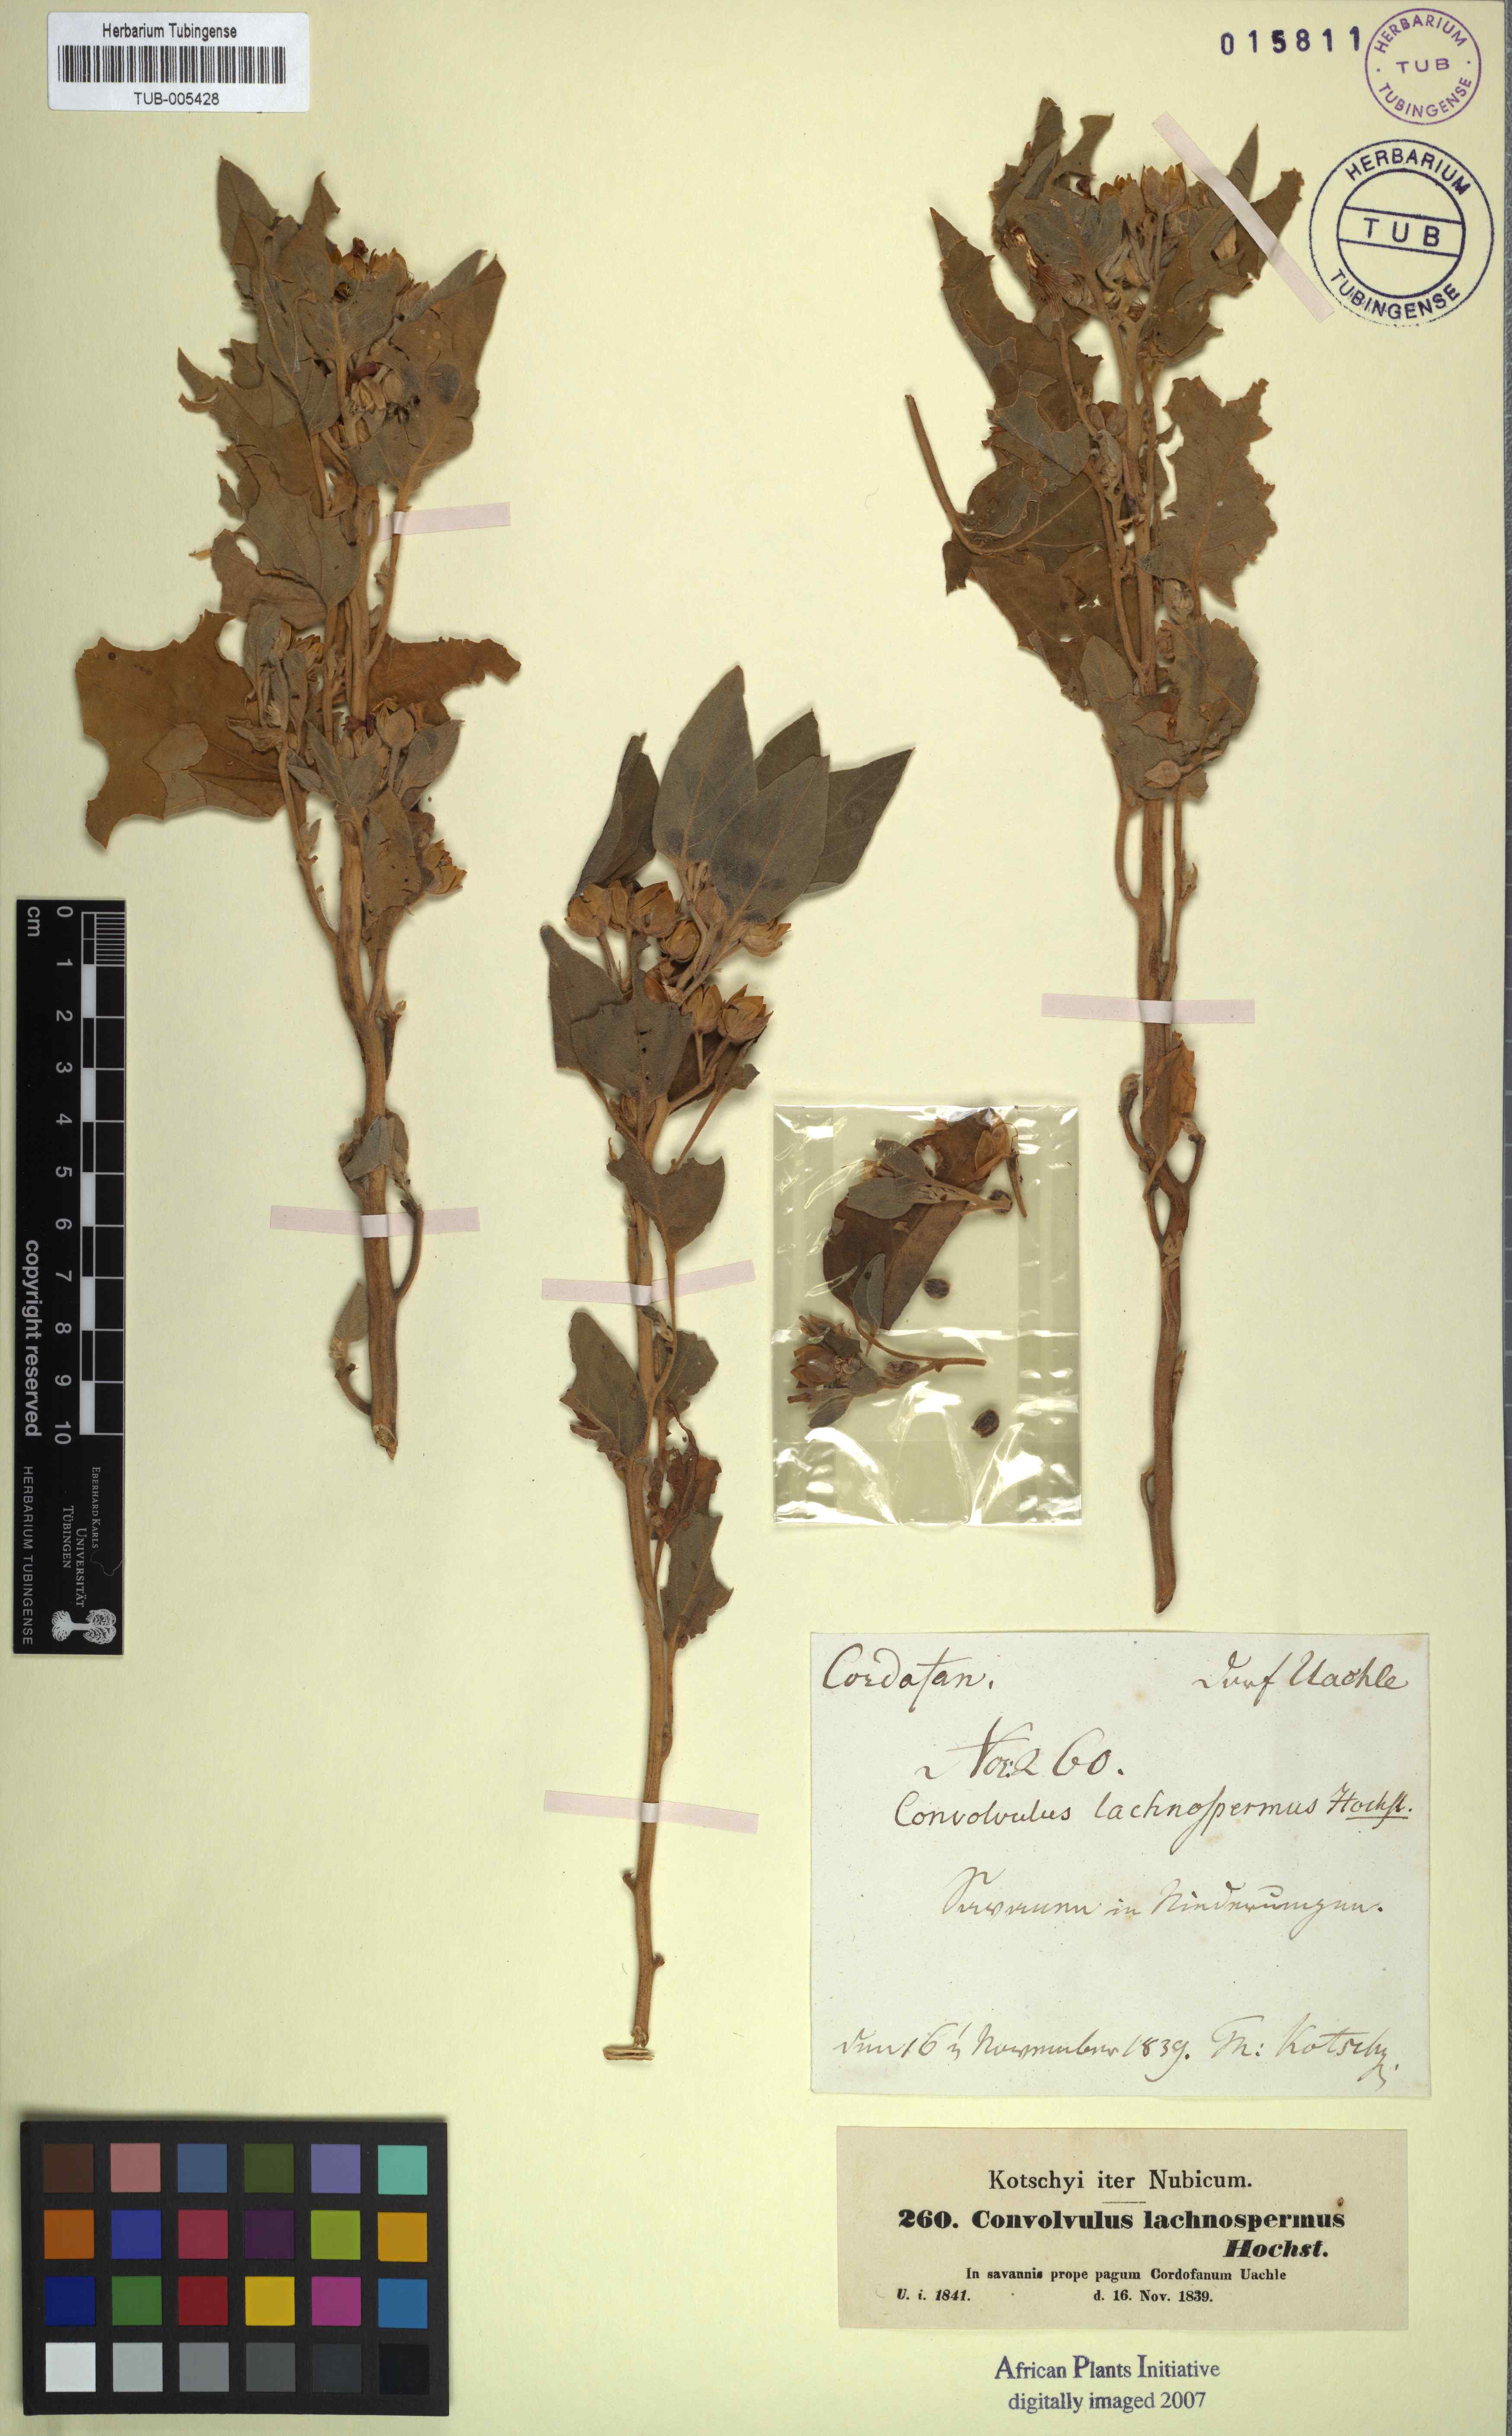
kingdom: Plantae
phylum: Tracheophyta
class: Magnoliopsida
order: Solanales
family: Convolvulaceae
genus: Astripomoea
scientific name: Astripomoea lachnosperma
